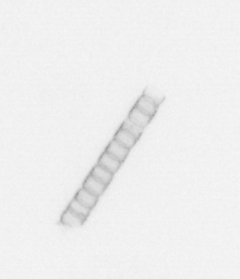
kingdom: Chromista
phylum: Ochrophyta
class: Bacillariophyceae
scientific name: Bacillariophyceae
